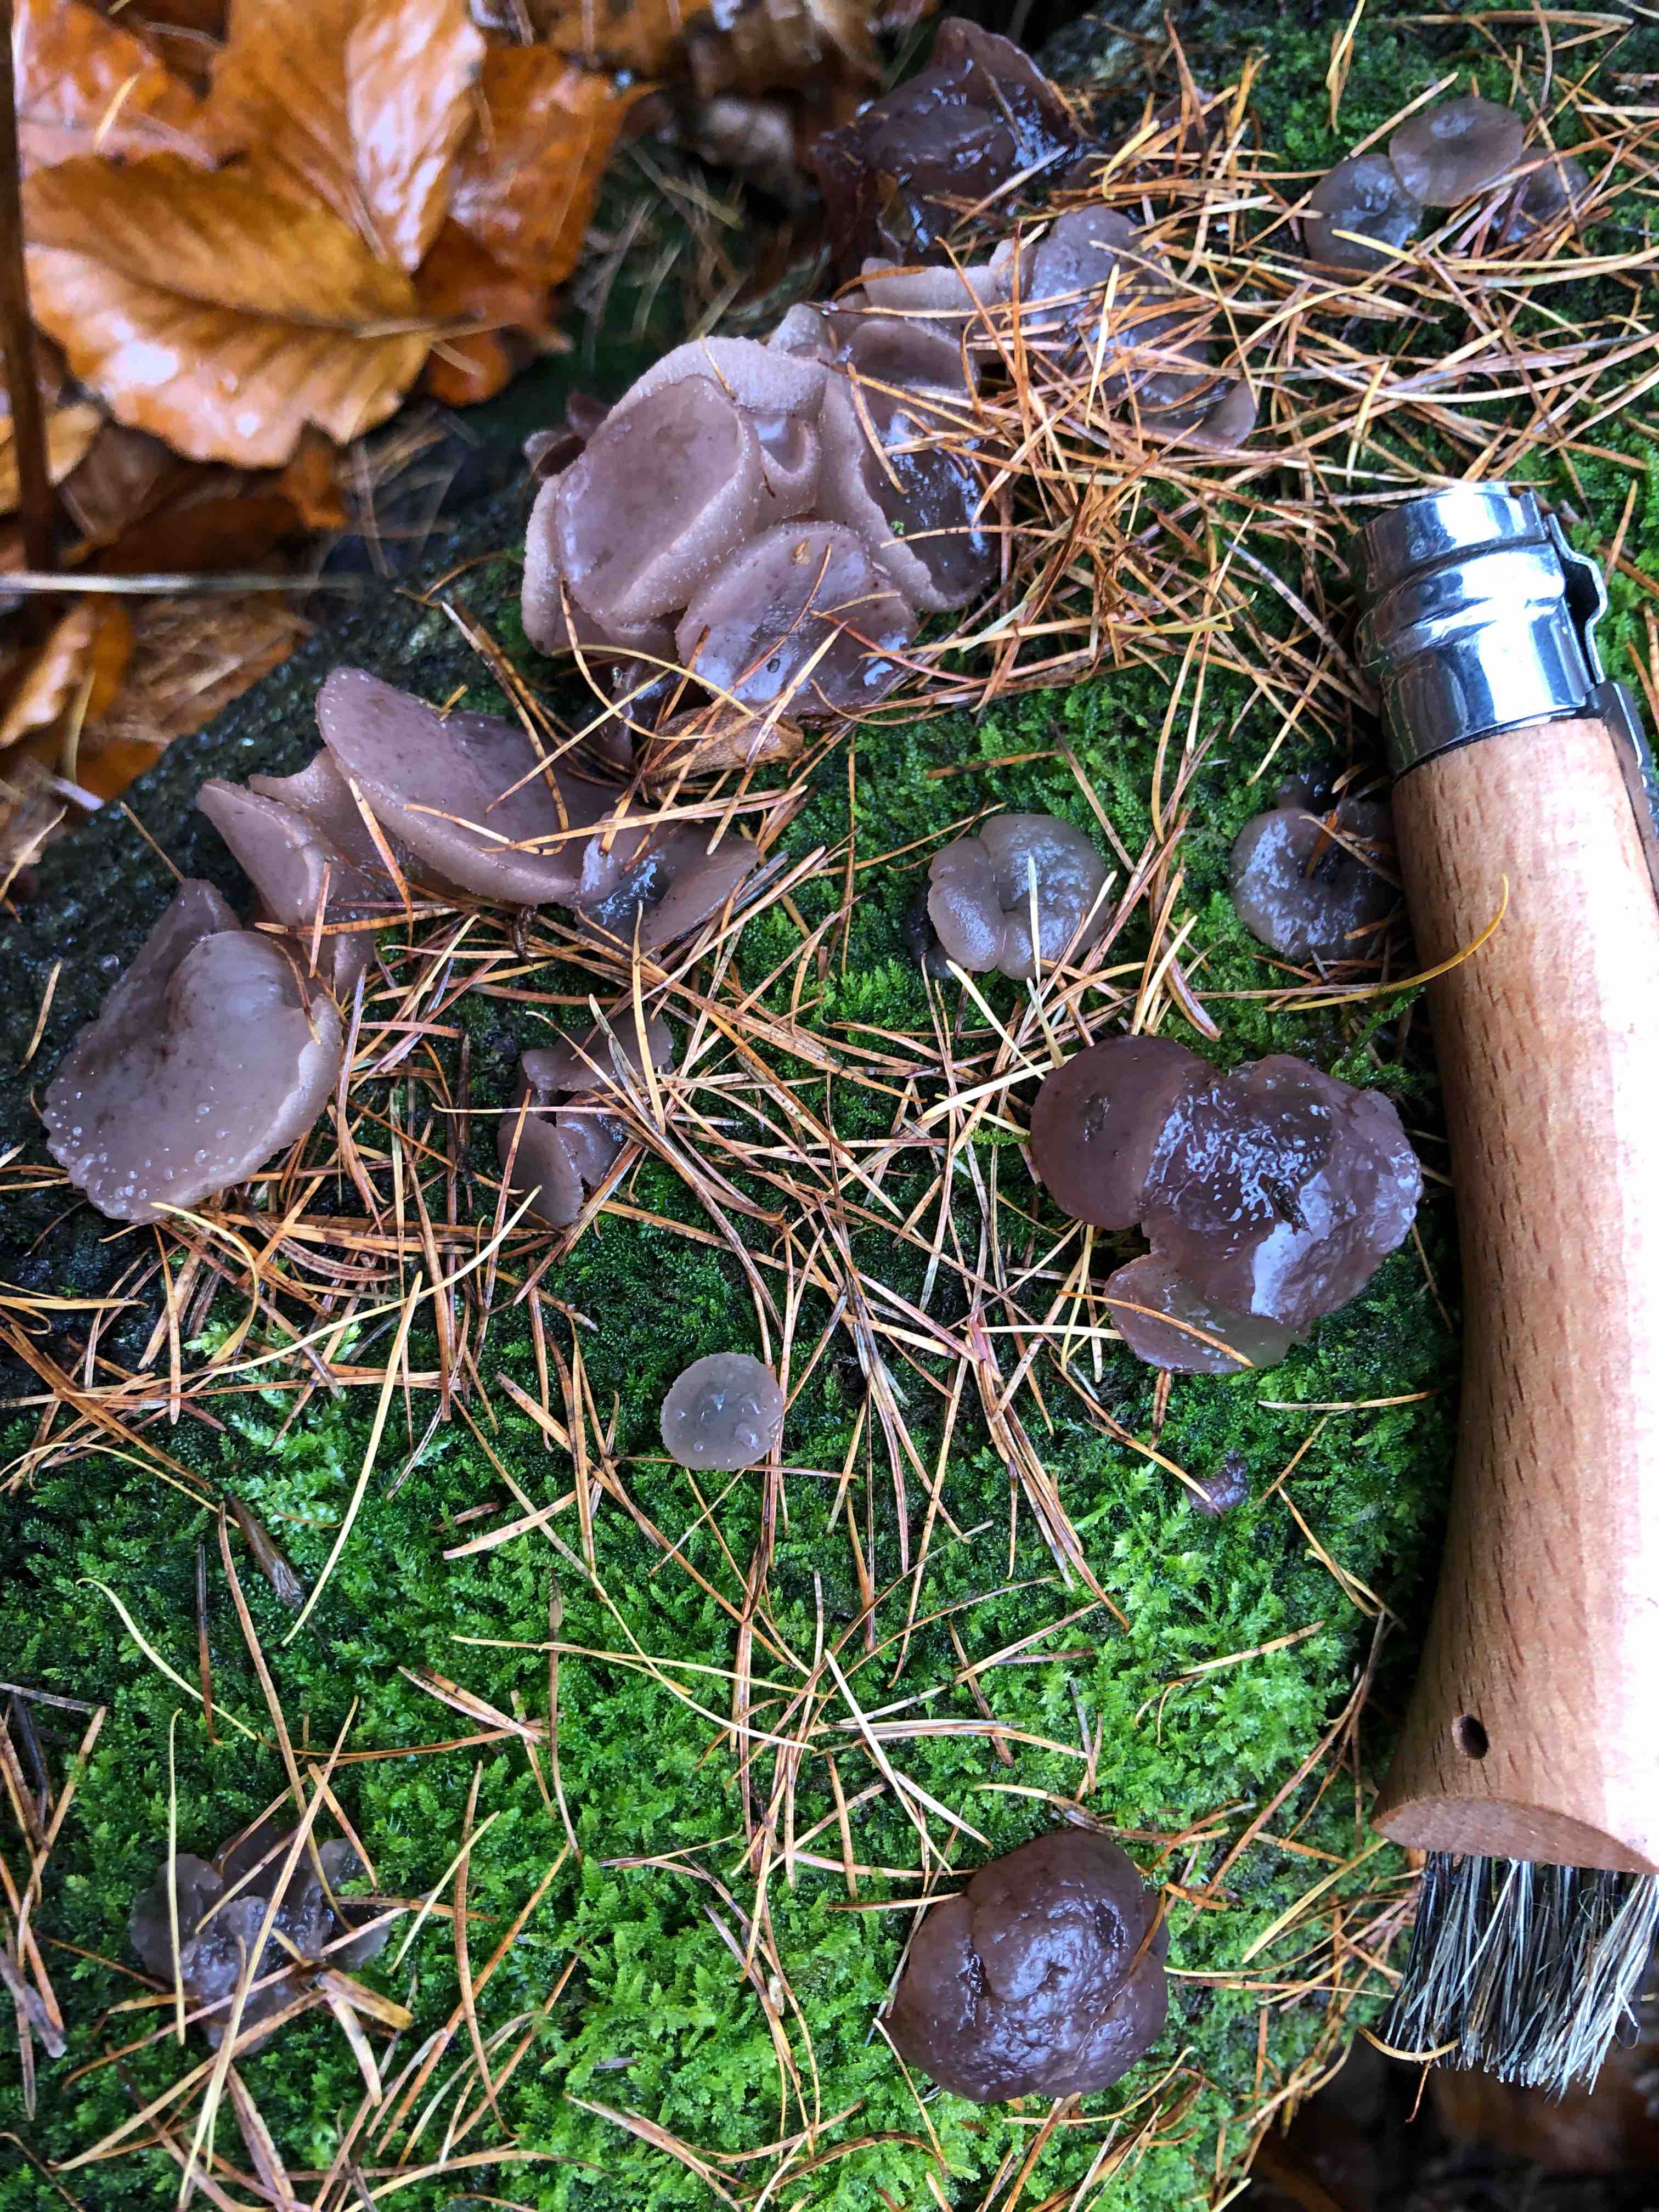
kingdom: Fungi
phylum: Ascomycota
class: Leotiomycetes
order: Helotiales
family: Gelatinodiscaceae
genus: Neobulgaria
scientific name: Neobulgaria pura
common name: bleg bævreskive
